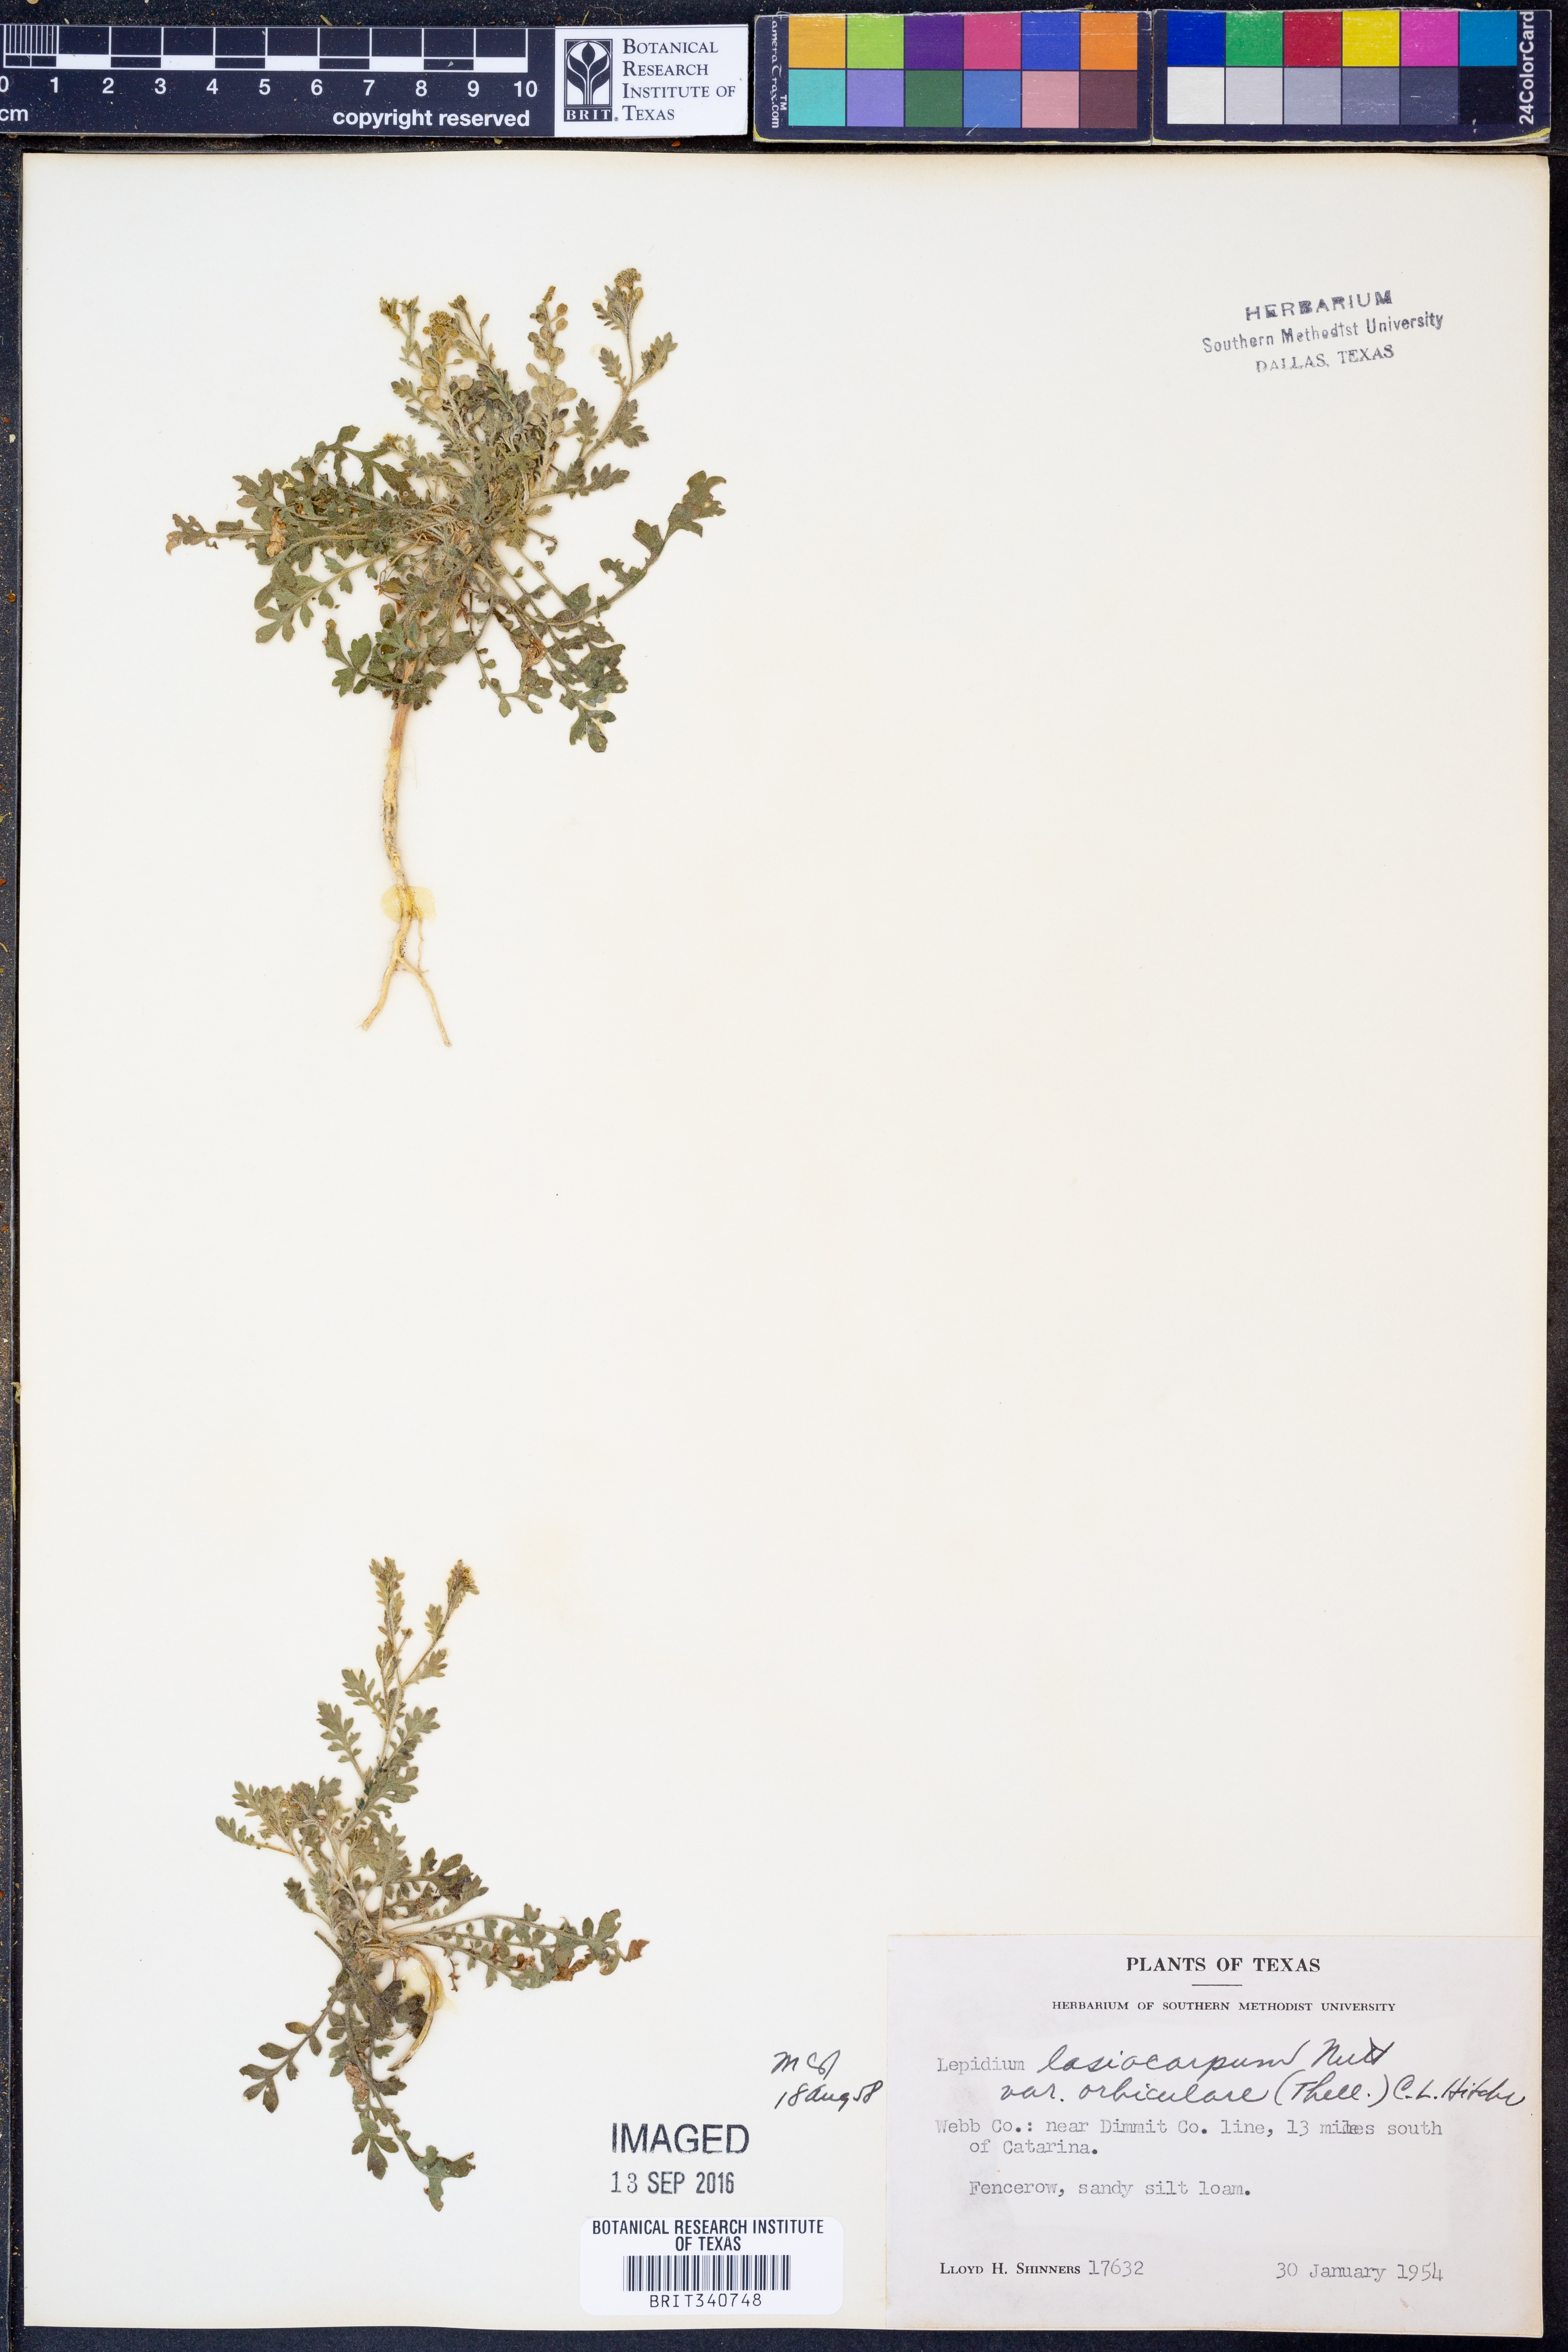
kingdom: Plantae
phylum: Tracheophyta
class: Magnoliopsida
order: Brassicales
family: Brassicaceae
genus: Lepidium
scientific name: Lepidium austrinum
